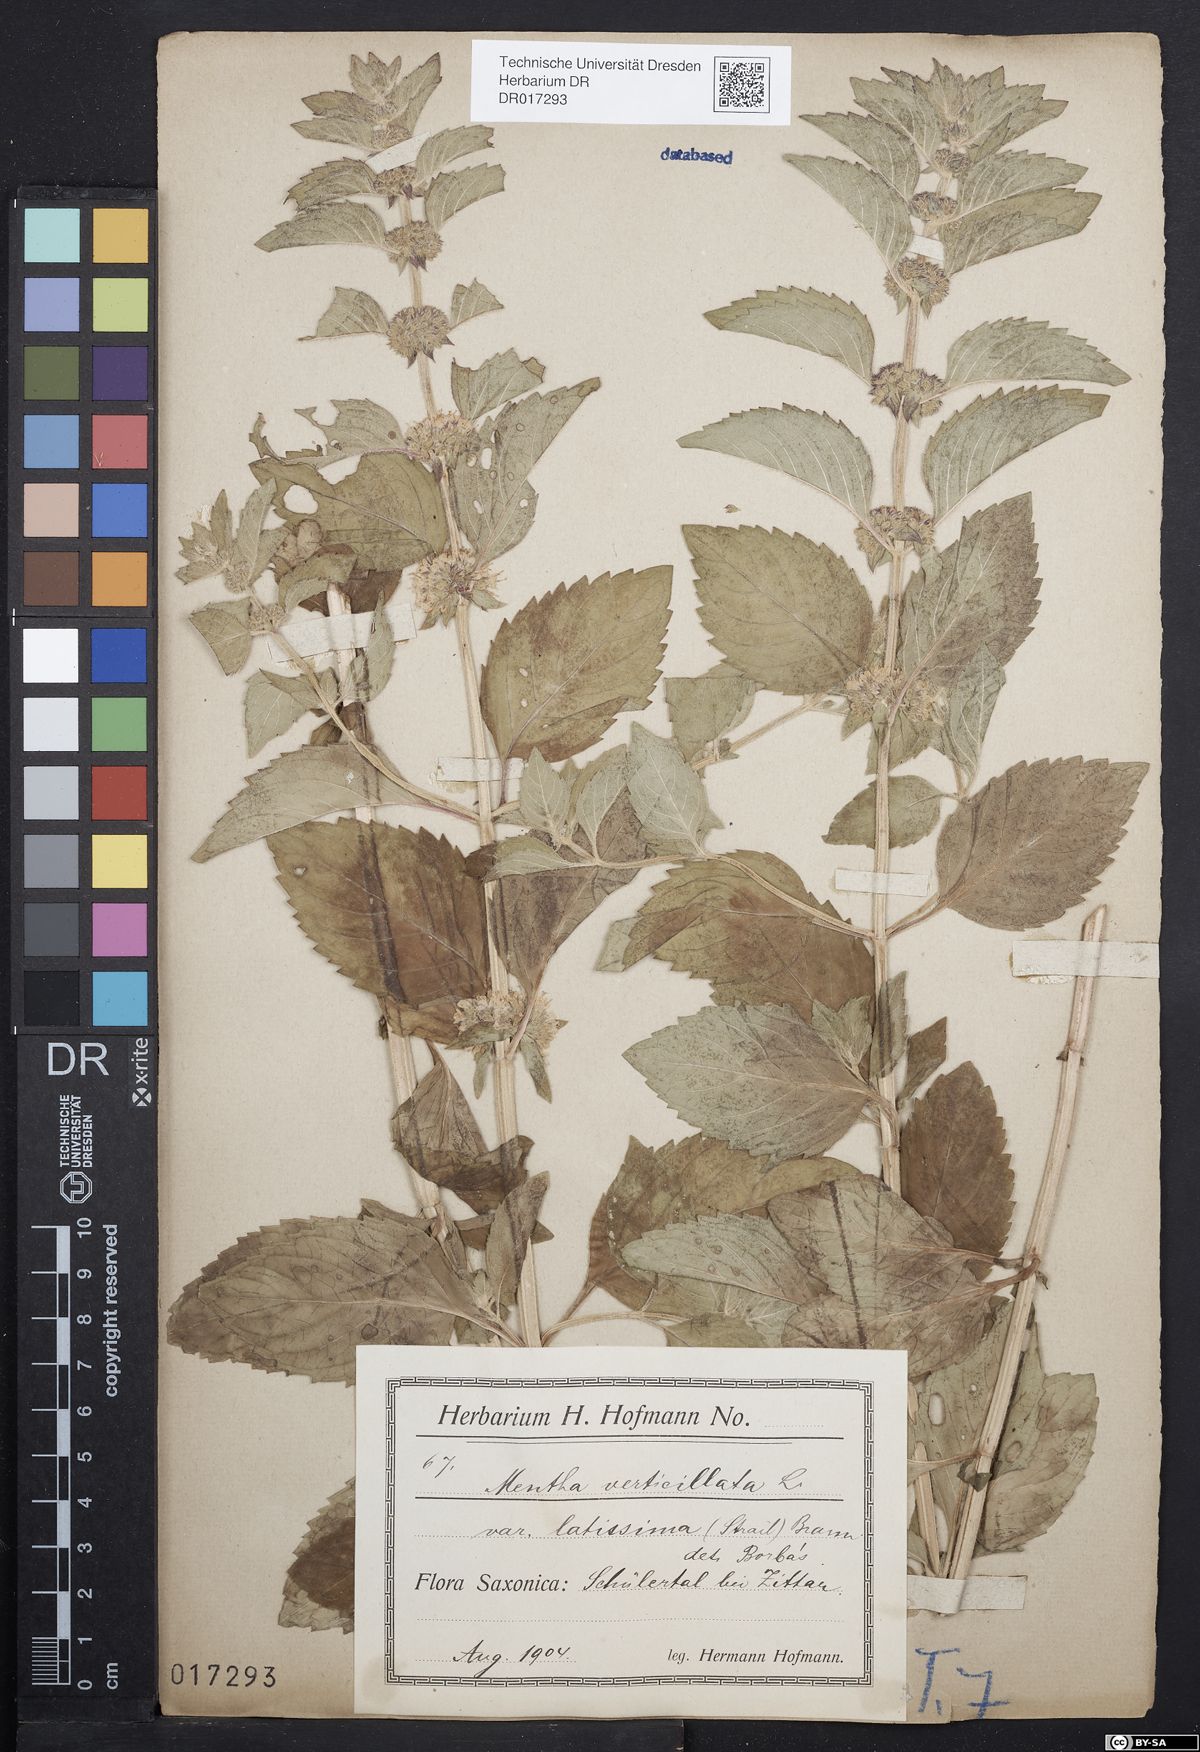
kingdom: Plantae
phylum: Tracheophyta
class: Magnoliopsida
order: Lamiales
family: Lamiaceae
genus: Mentha
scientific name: Mentha verticillata
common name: Mint
